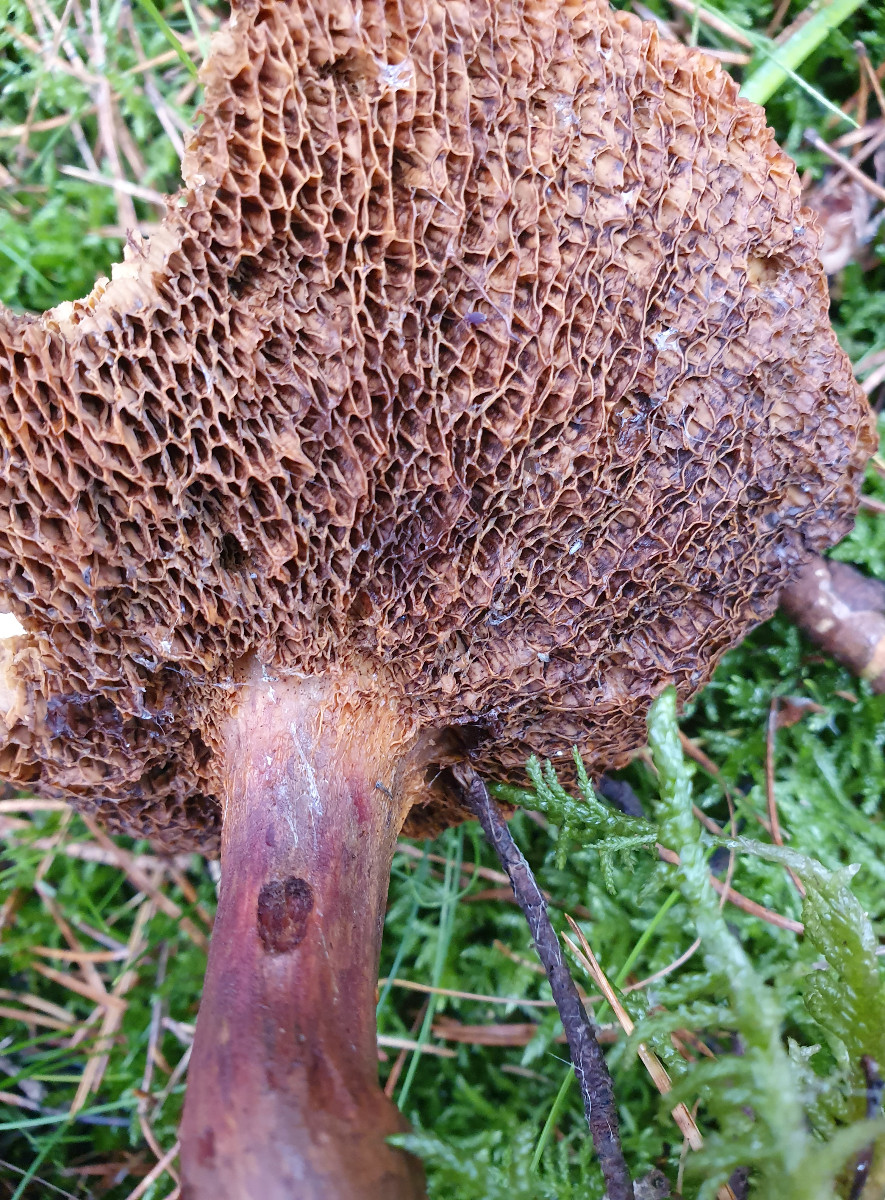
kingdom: Fungi
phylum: Basidiomycota
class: Agaricomycetes
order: Boletales
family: Suillaceae
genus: Suillus
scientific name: Suillus bovinus
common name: grovporet slimrørhat
